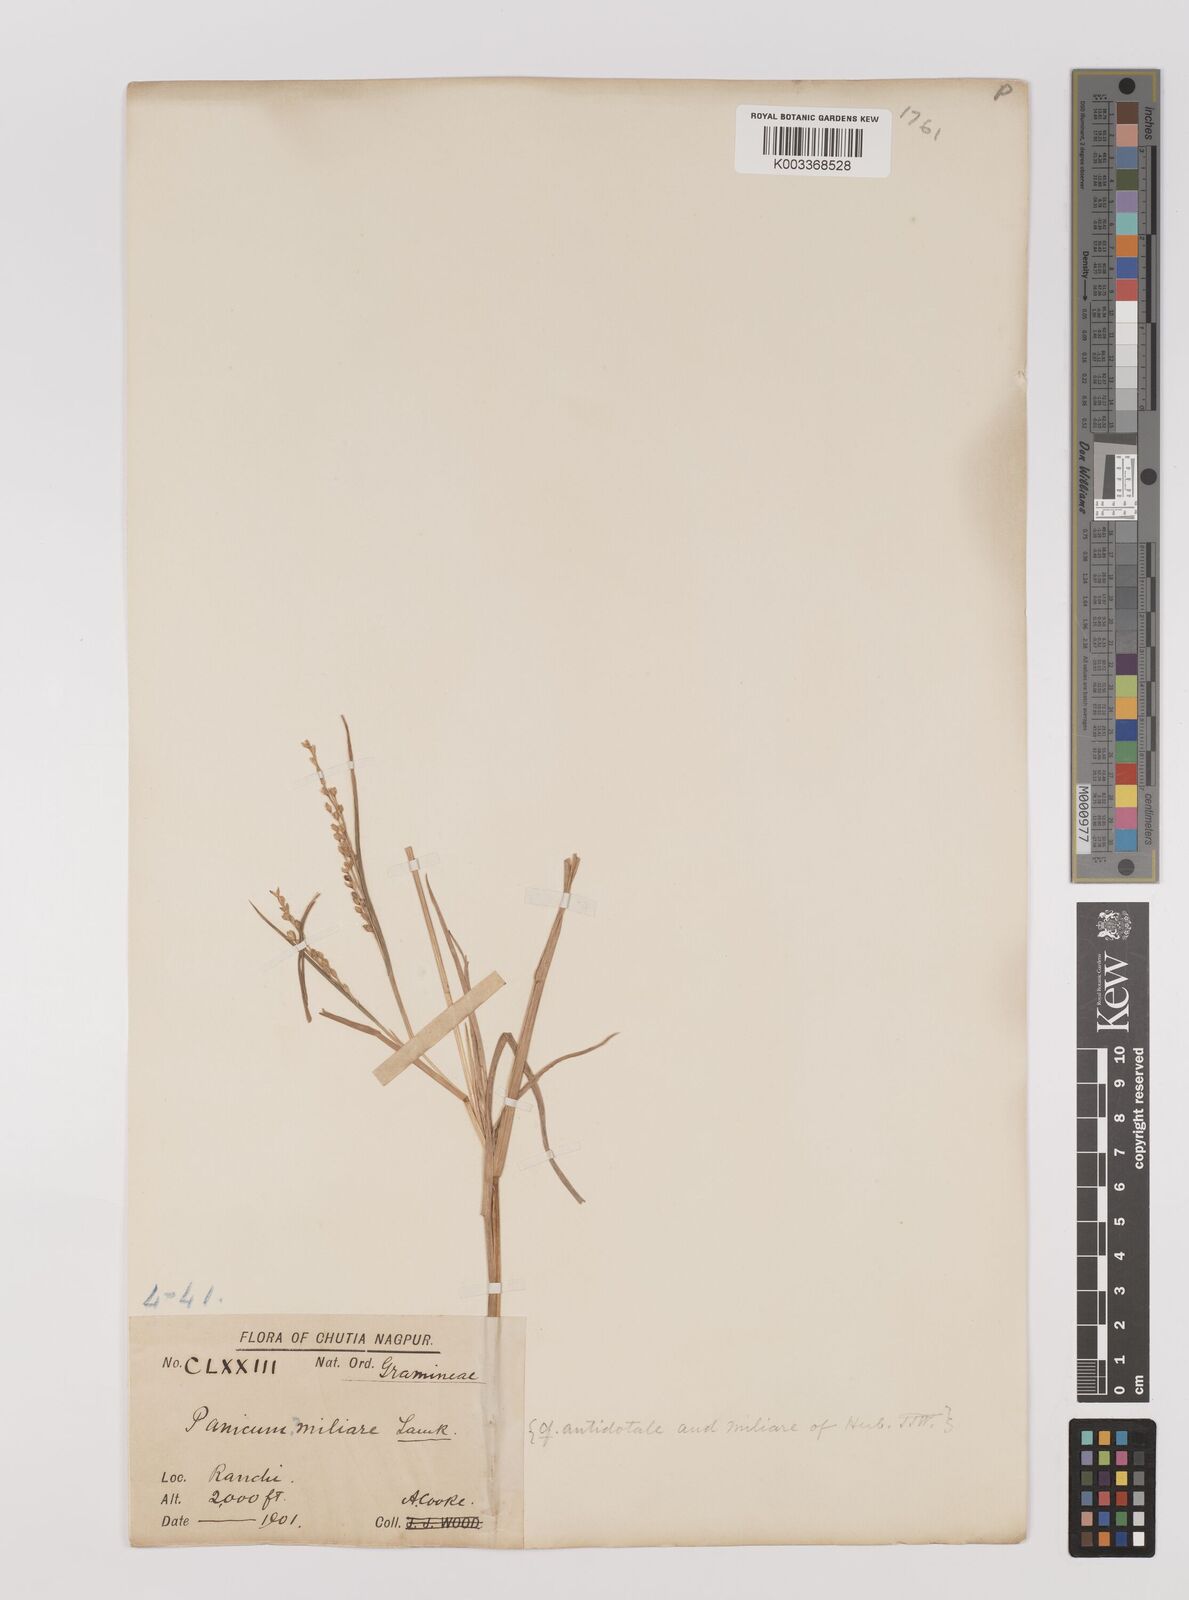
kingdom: Plantae
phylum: Tracheophyta
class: Liliopsida
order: Poales
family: Poaceae
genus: Panicum
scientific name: Panicum sumatrense
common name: Little millet
